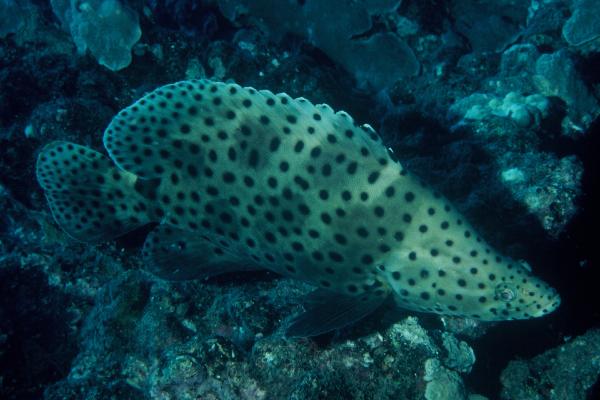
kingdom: Animalia
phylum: Chordata
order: Perciformes
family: Serranidae
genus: Cromileptes
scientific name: Cromileptes altivelis
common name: Humpback grouper
